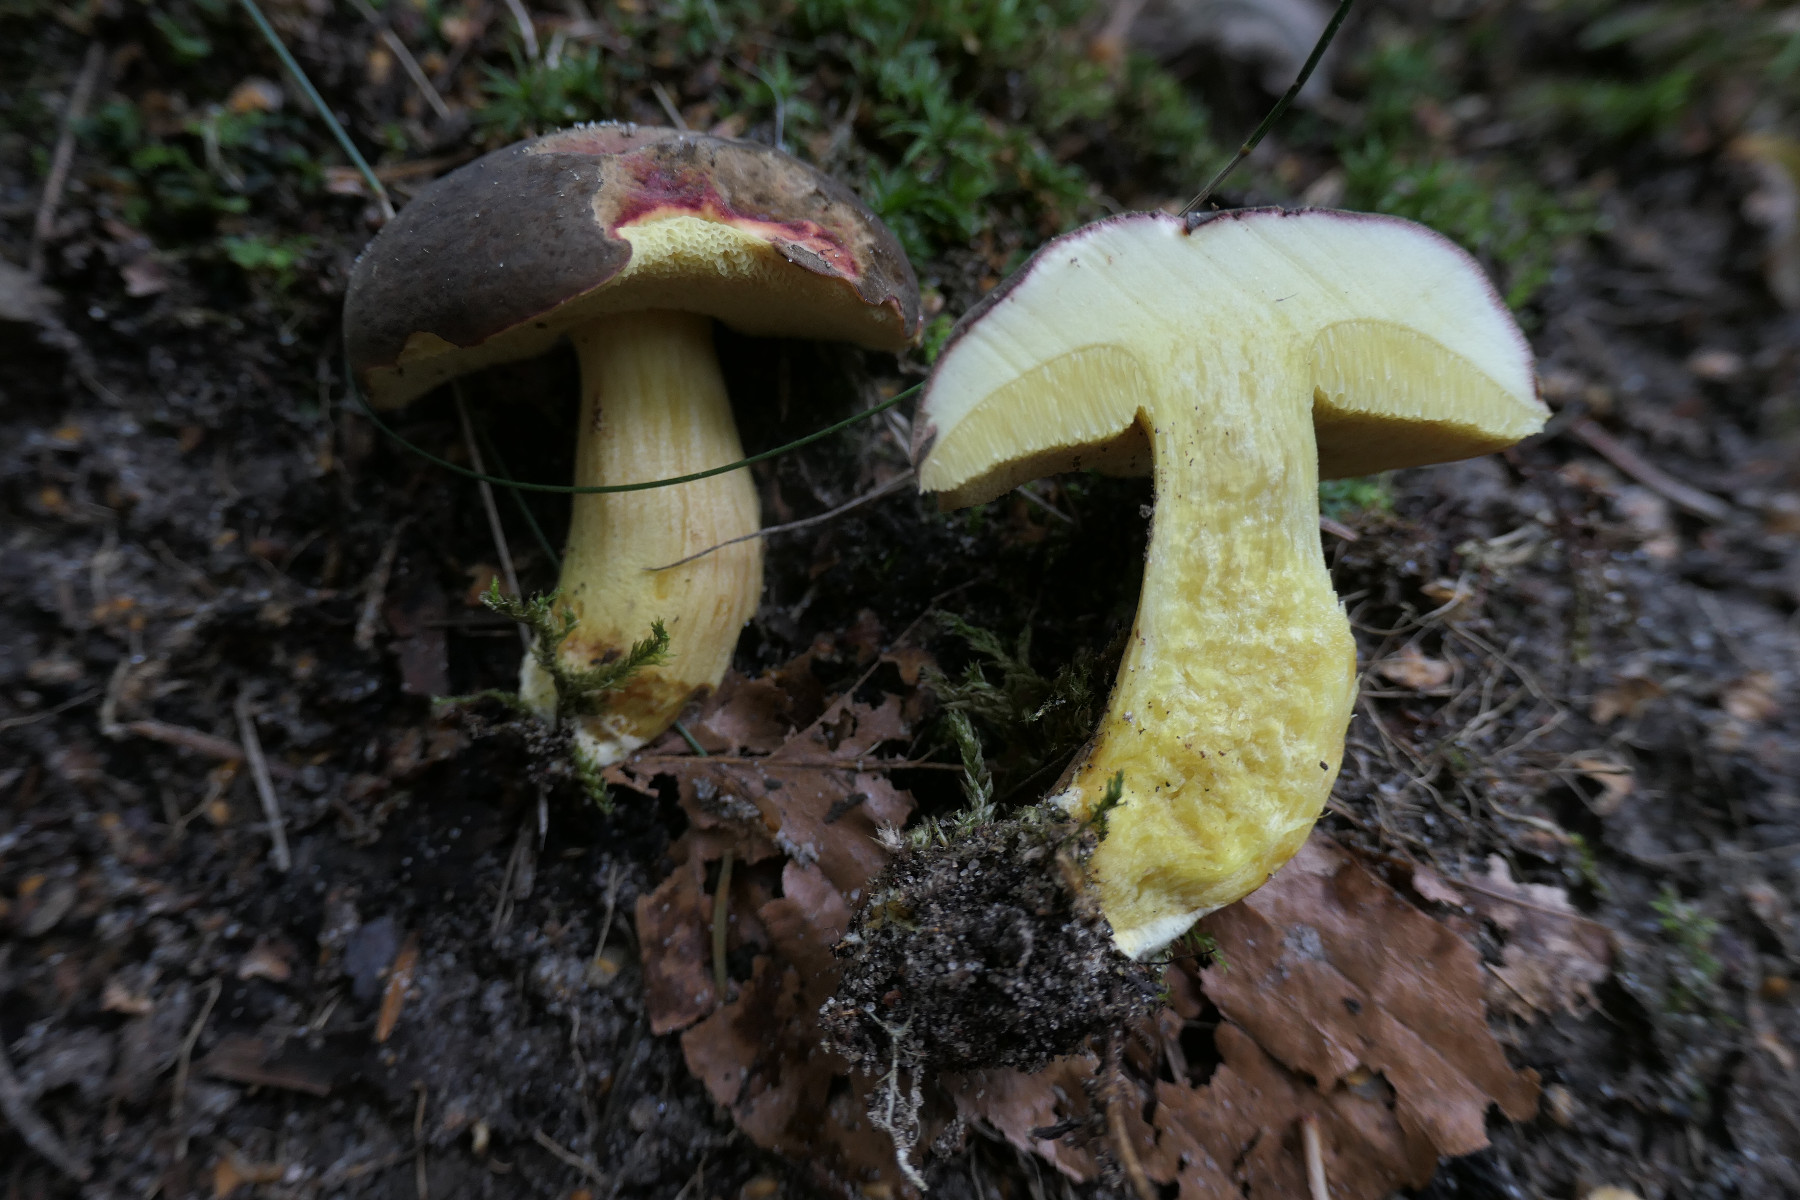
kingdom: Fungi
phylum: Basidiomycota
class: Agaricomycetes
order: Boletales
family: Boletaceae
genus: Xerocomellus
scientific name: Xerocomellus pruinatus
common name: dugget rørhat
